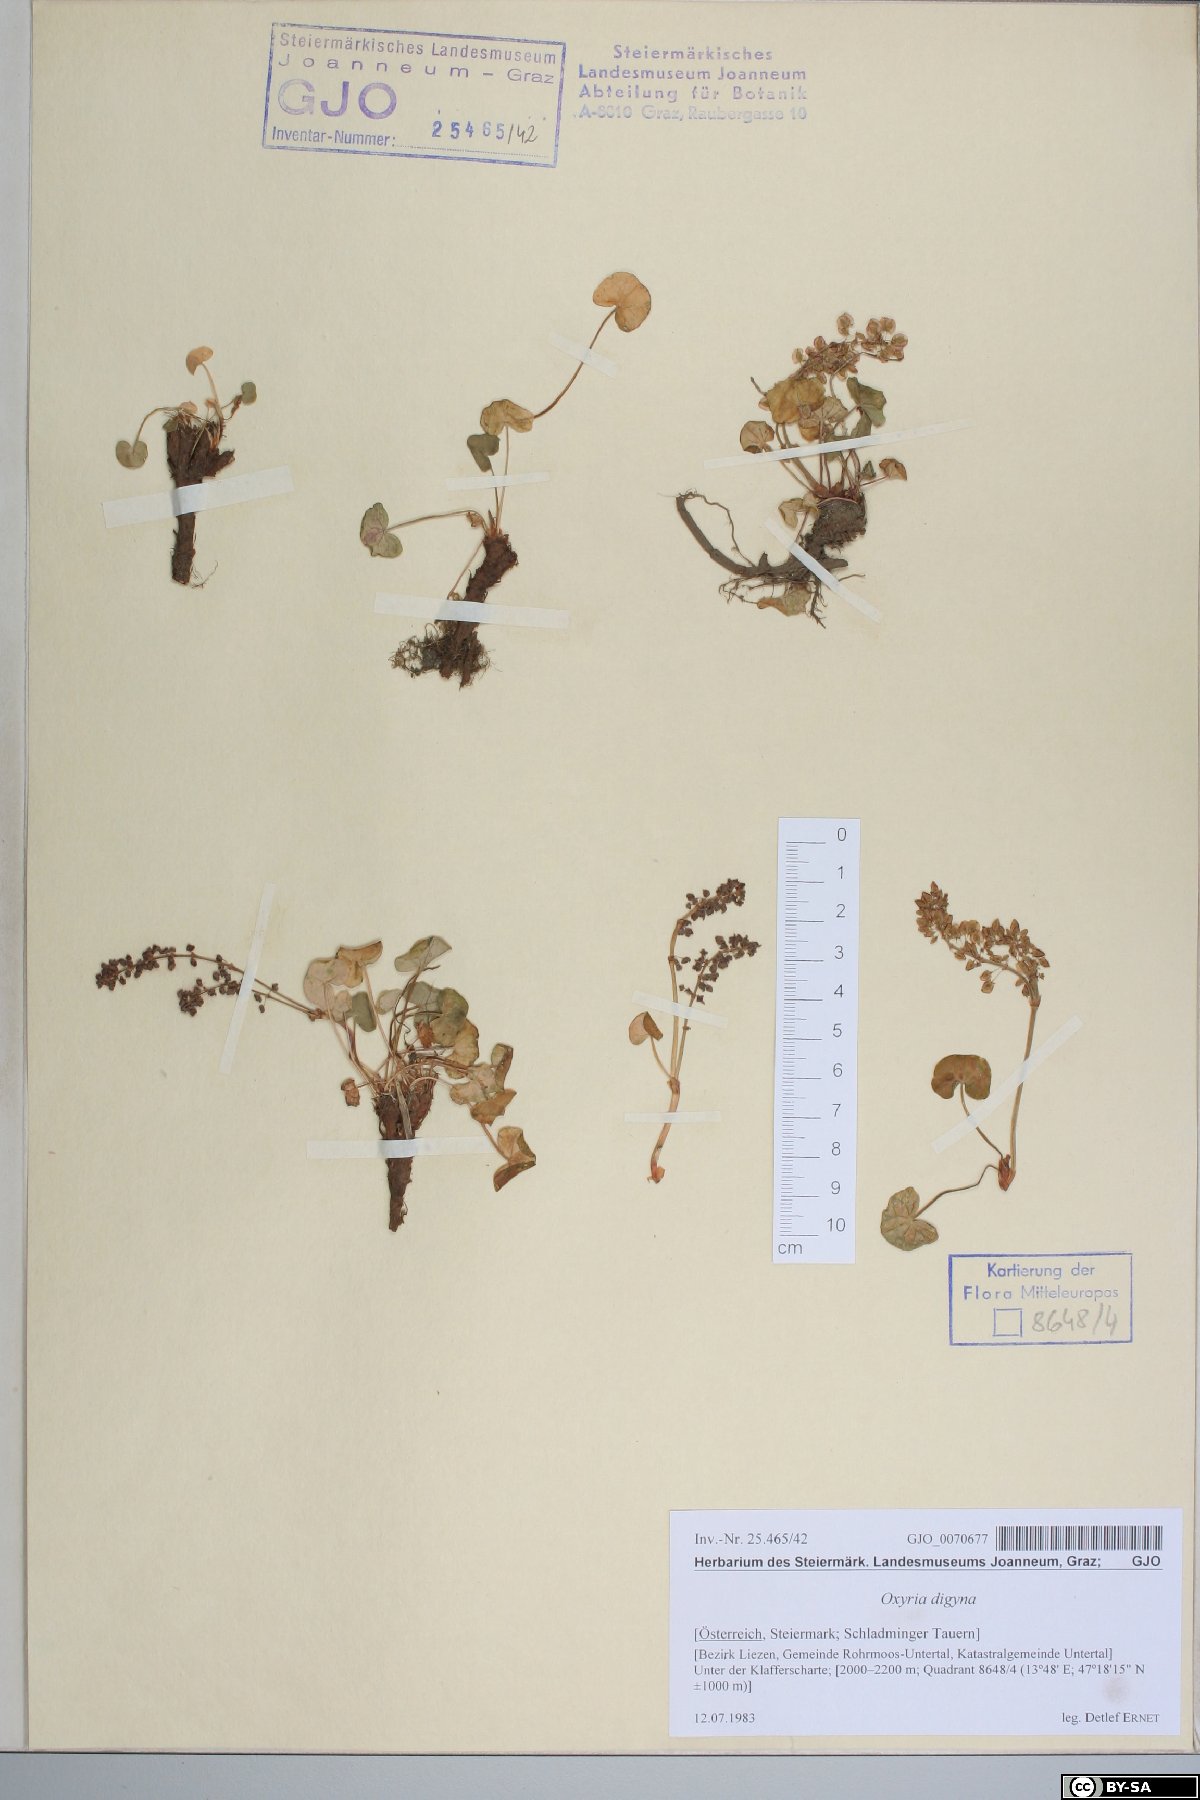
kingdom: Plantae
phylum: Tracheophyta
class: Magnoliopsida
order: Caryophyllales
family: Polygonaceae
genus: Oxyria
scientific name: Oxyria digyna
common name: Alpine mountain-sorrel
